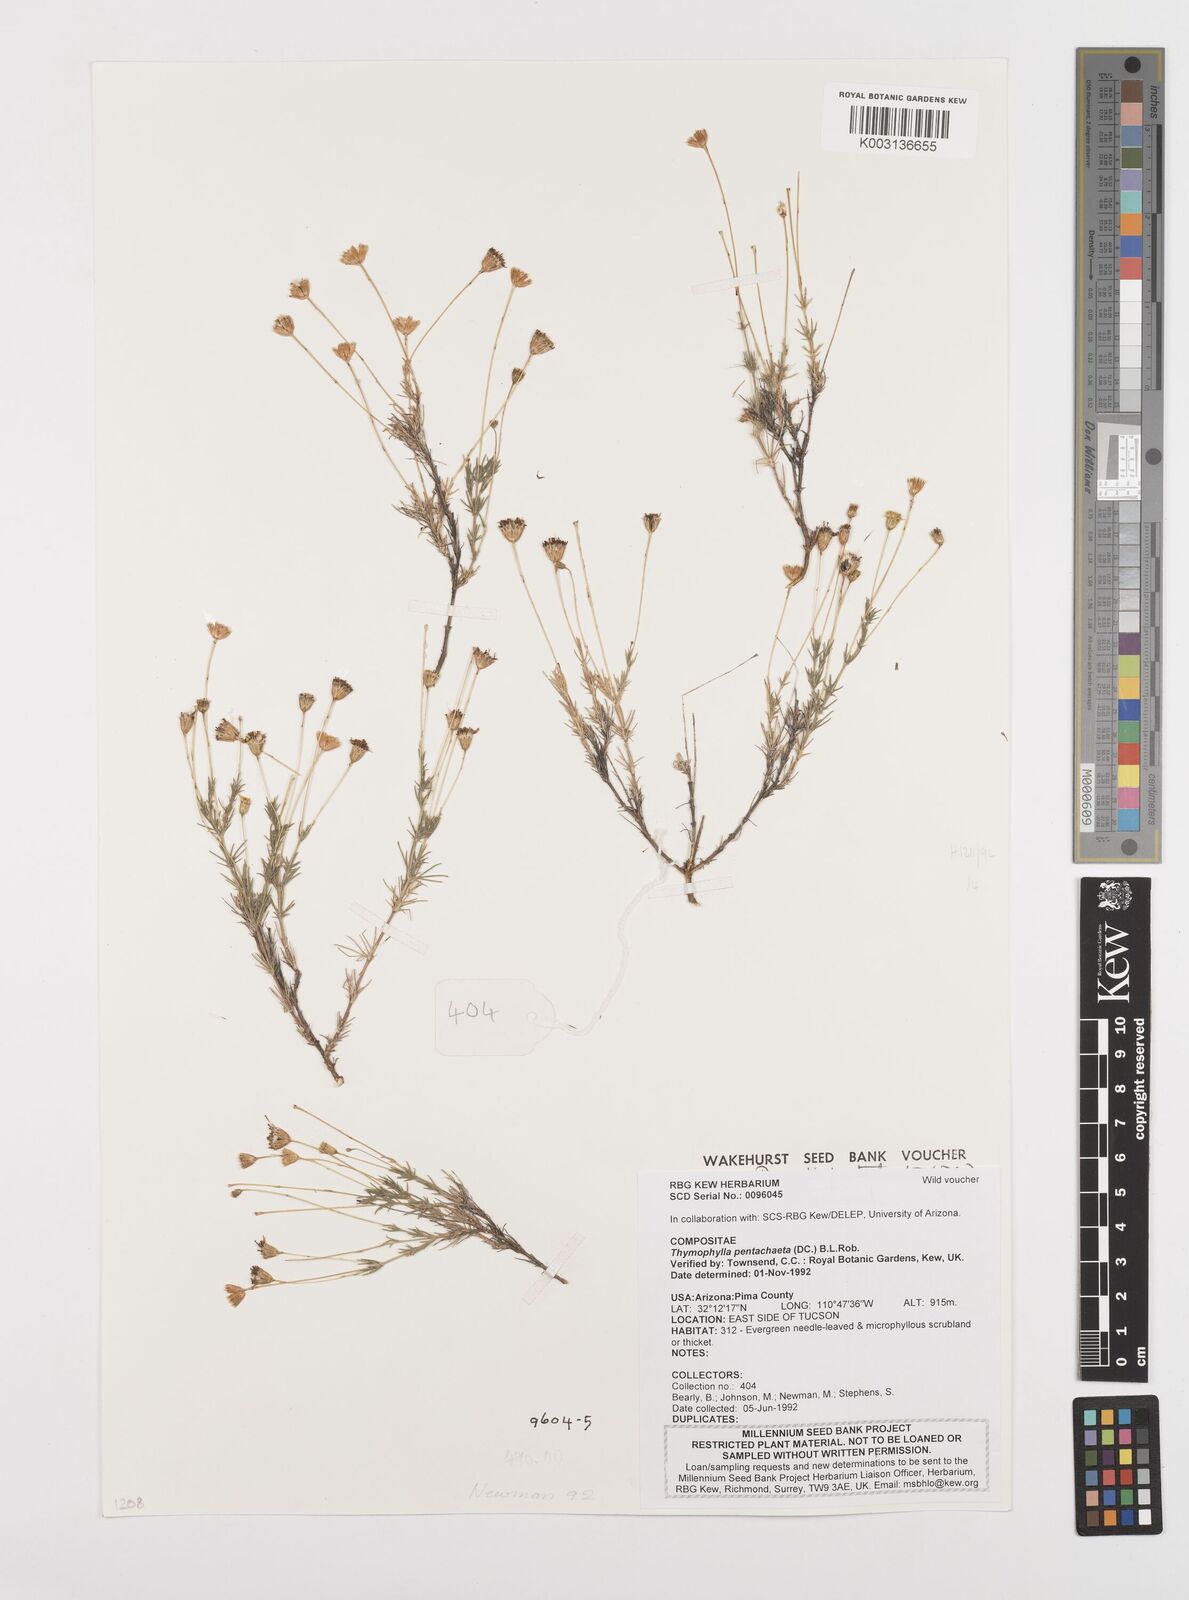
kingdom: Plantae
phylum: Tracheophyta
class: Magnoliopsida
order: Asterales
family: Asteraceae
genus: Thymophylla
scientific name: Thymophylla pentachaeta
